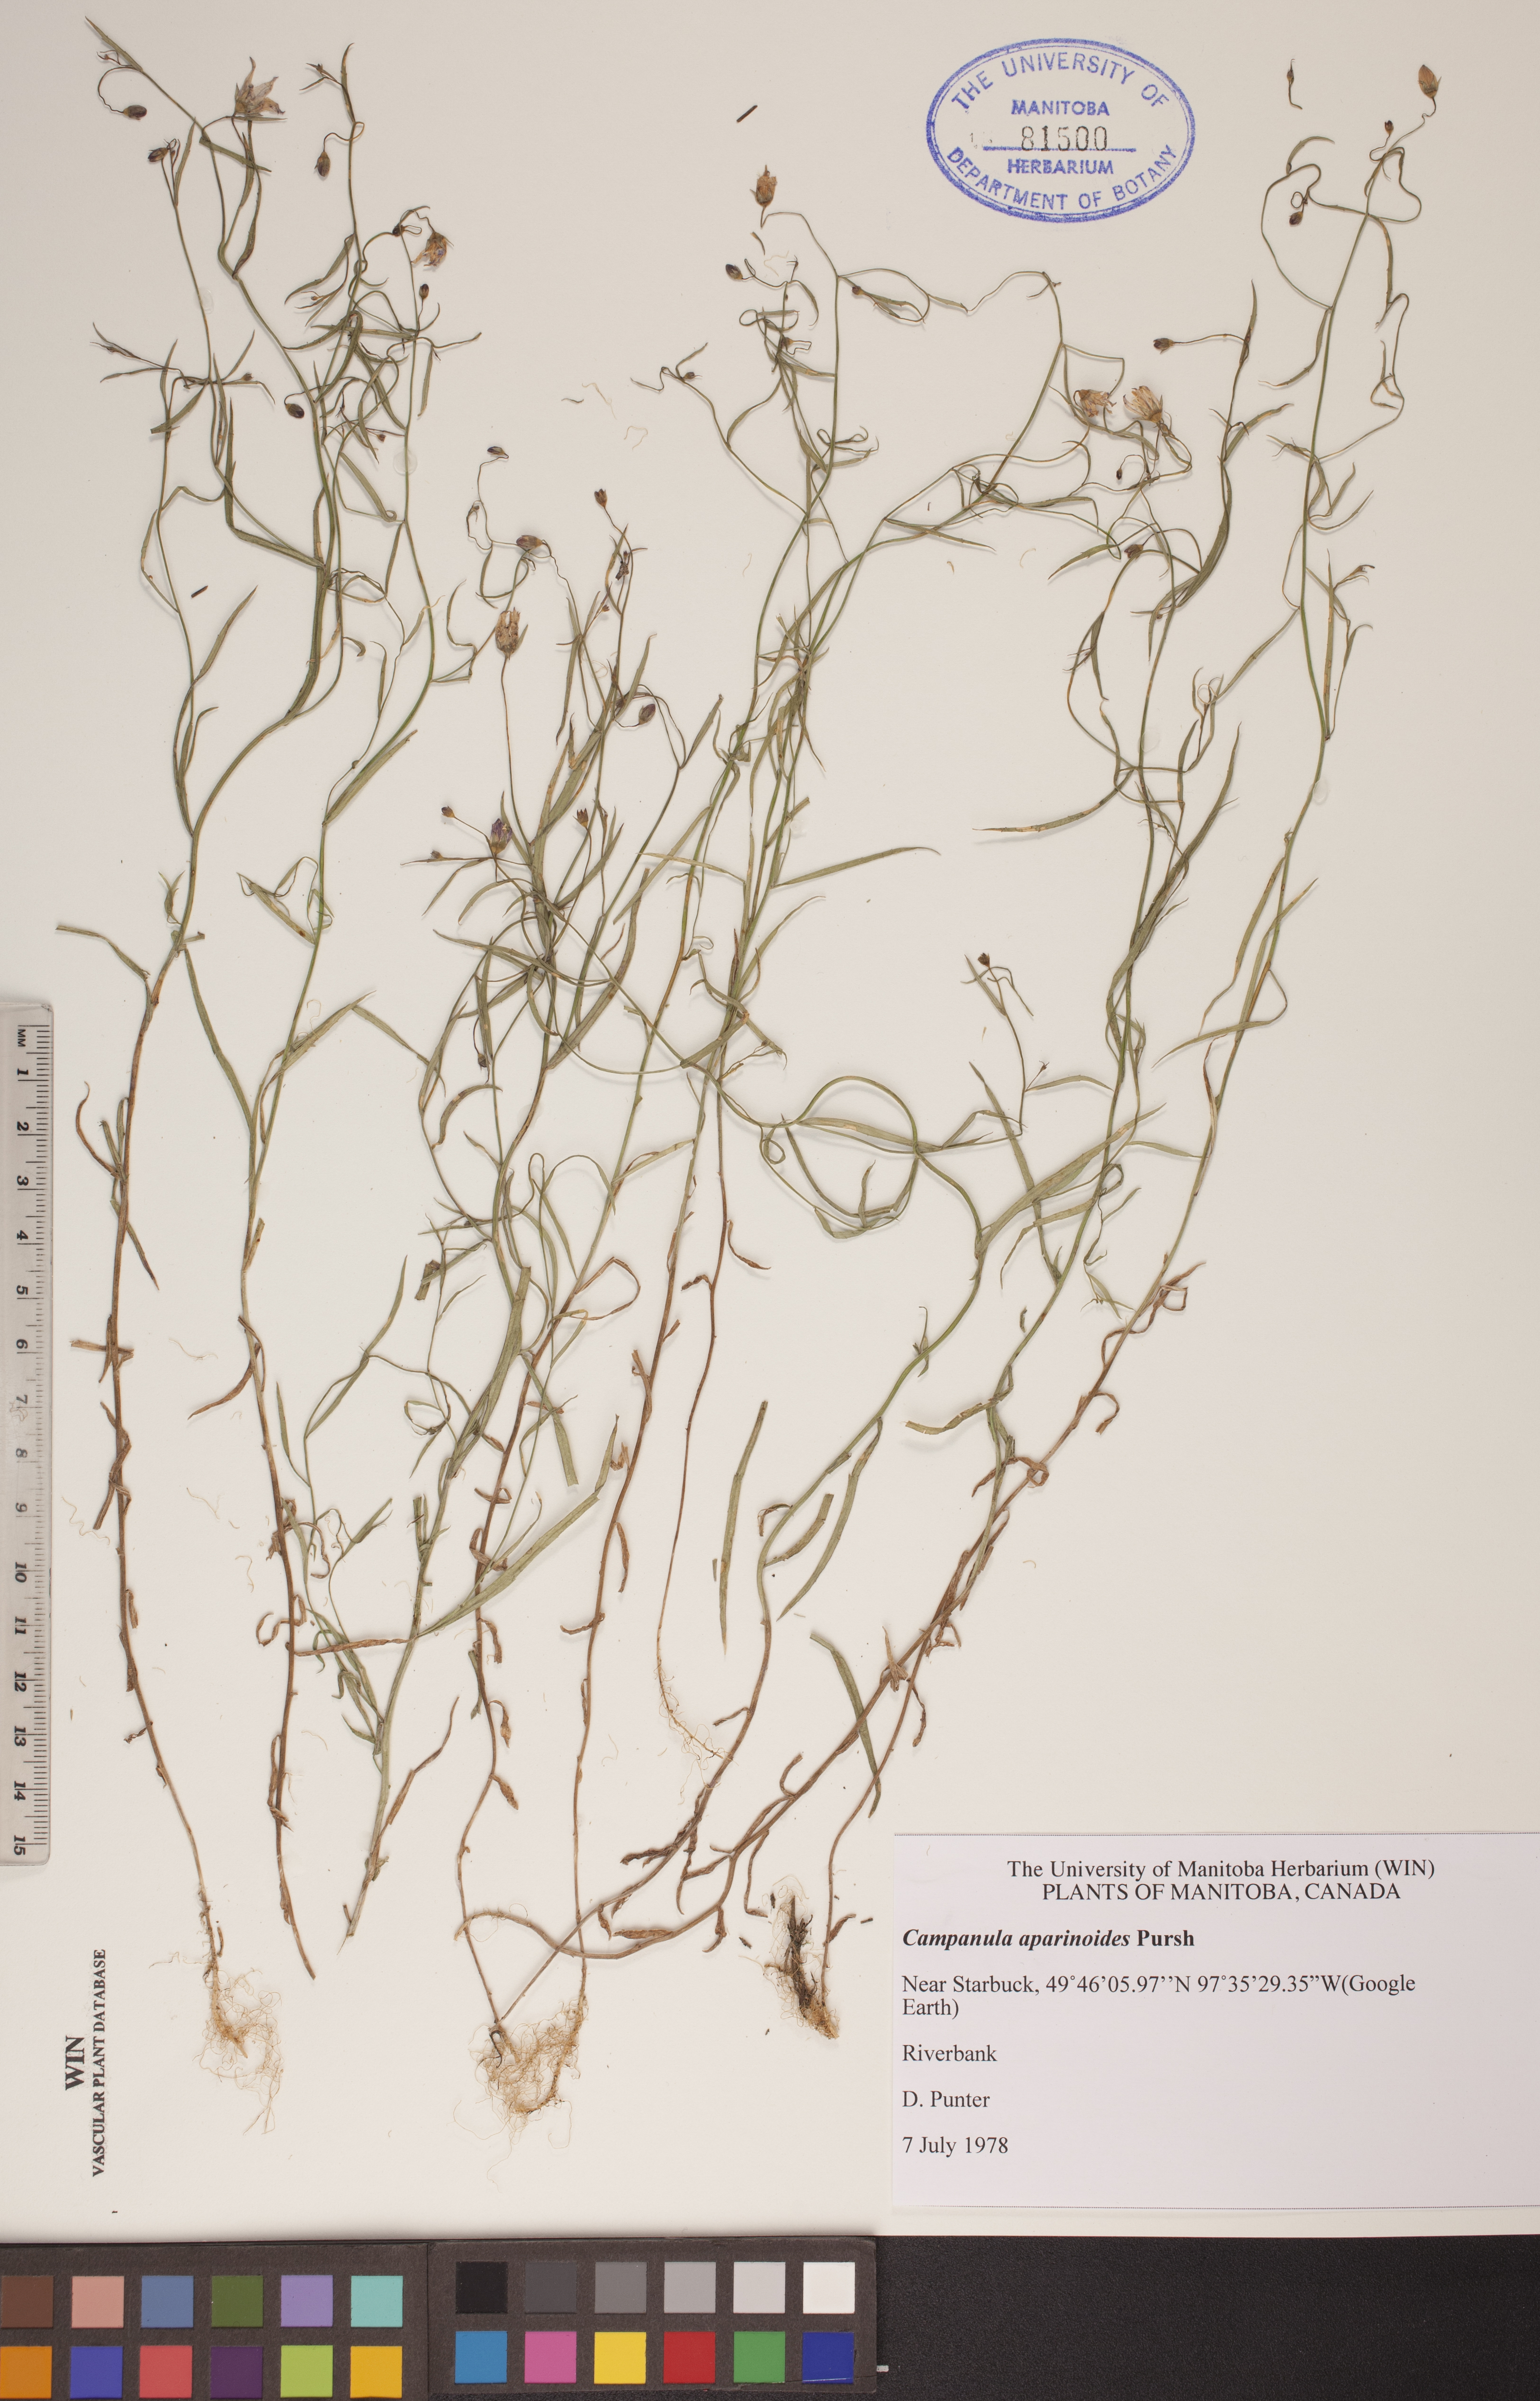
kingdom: Plantae
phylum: Tracheophyta
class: Magnoliopsida
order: Asterales
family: Campanulaceae
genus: Palustricodon
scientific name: Palustricodon aparinoides
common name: Bedstraw bellflower
